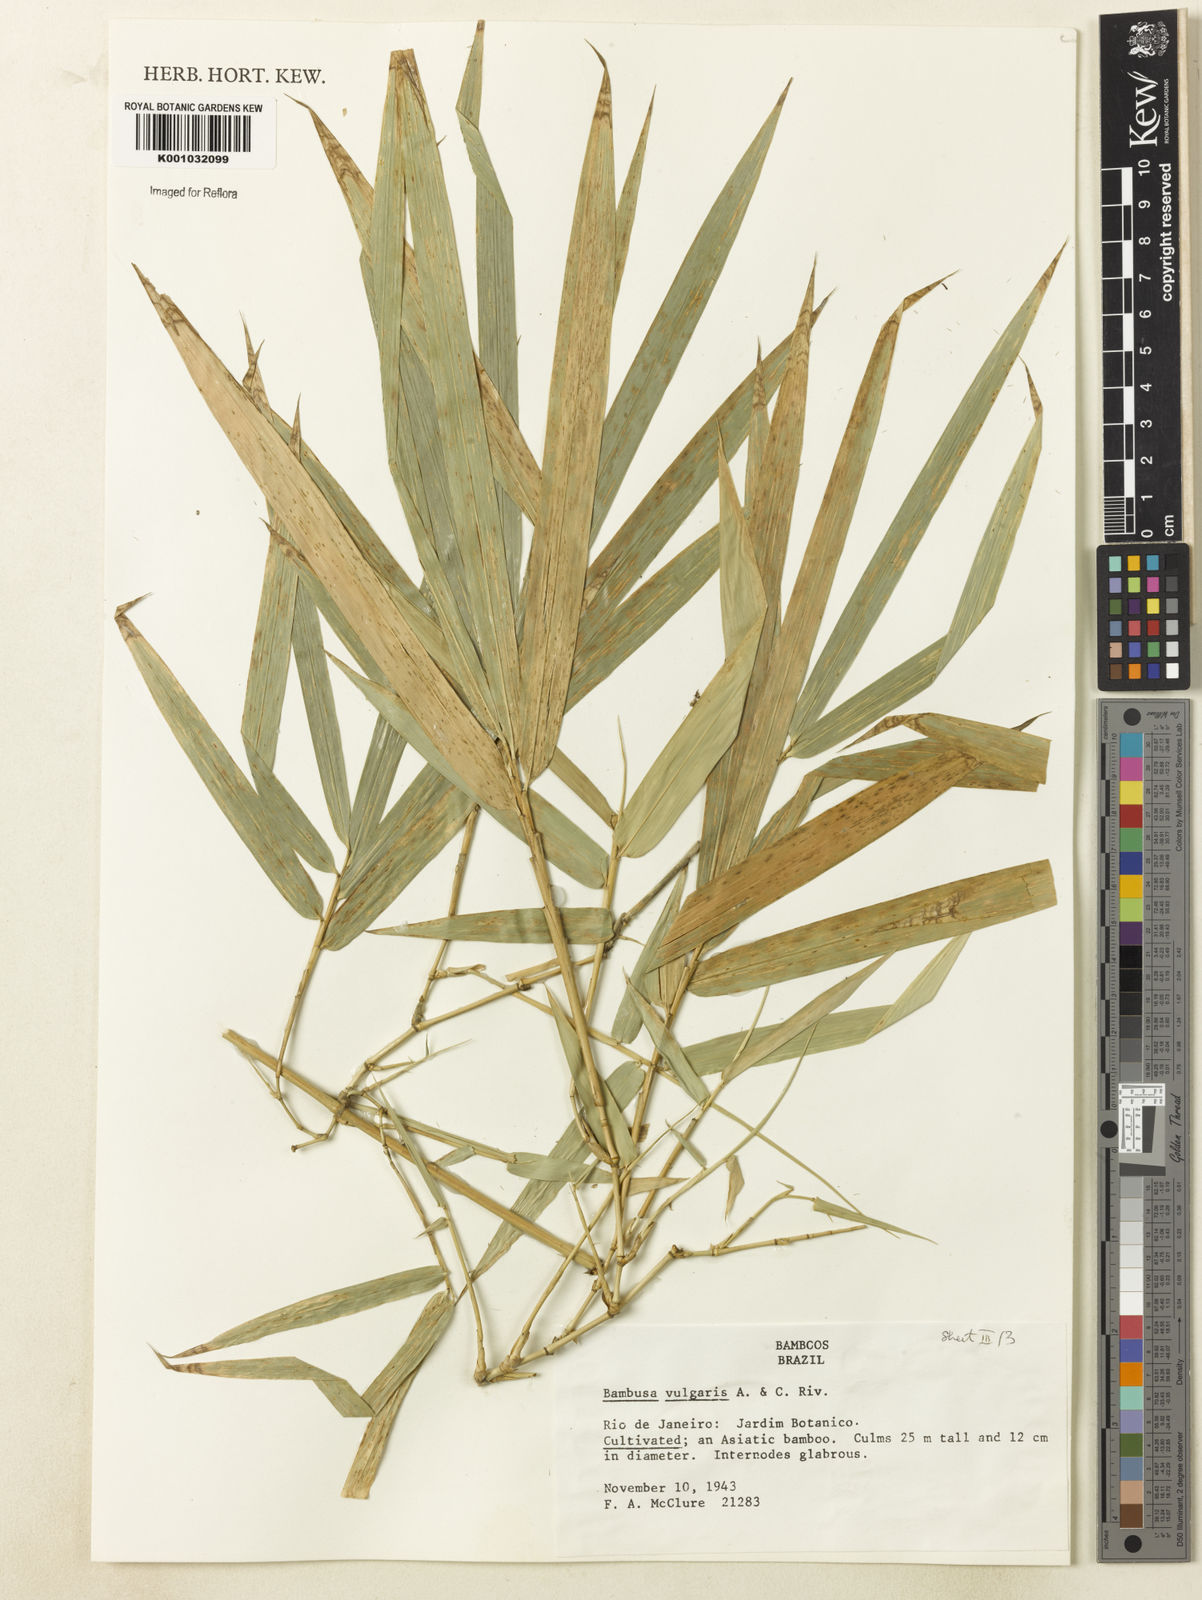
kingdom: Plantae
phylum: Tracheophyta
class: Liliopsida
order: Poales
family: Poaceae
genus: Bambusa
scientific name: Bambusa vulgaris
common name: Common bamboo
